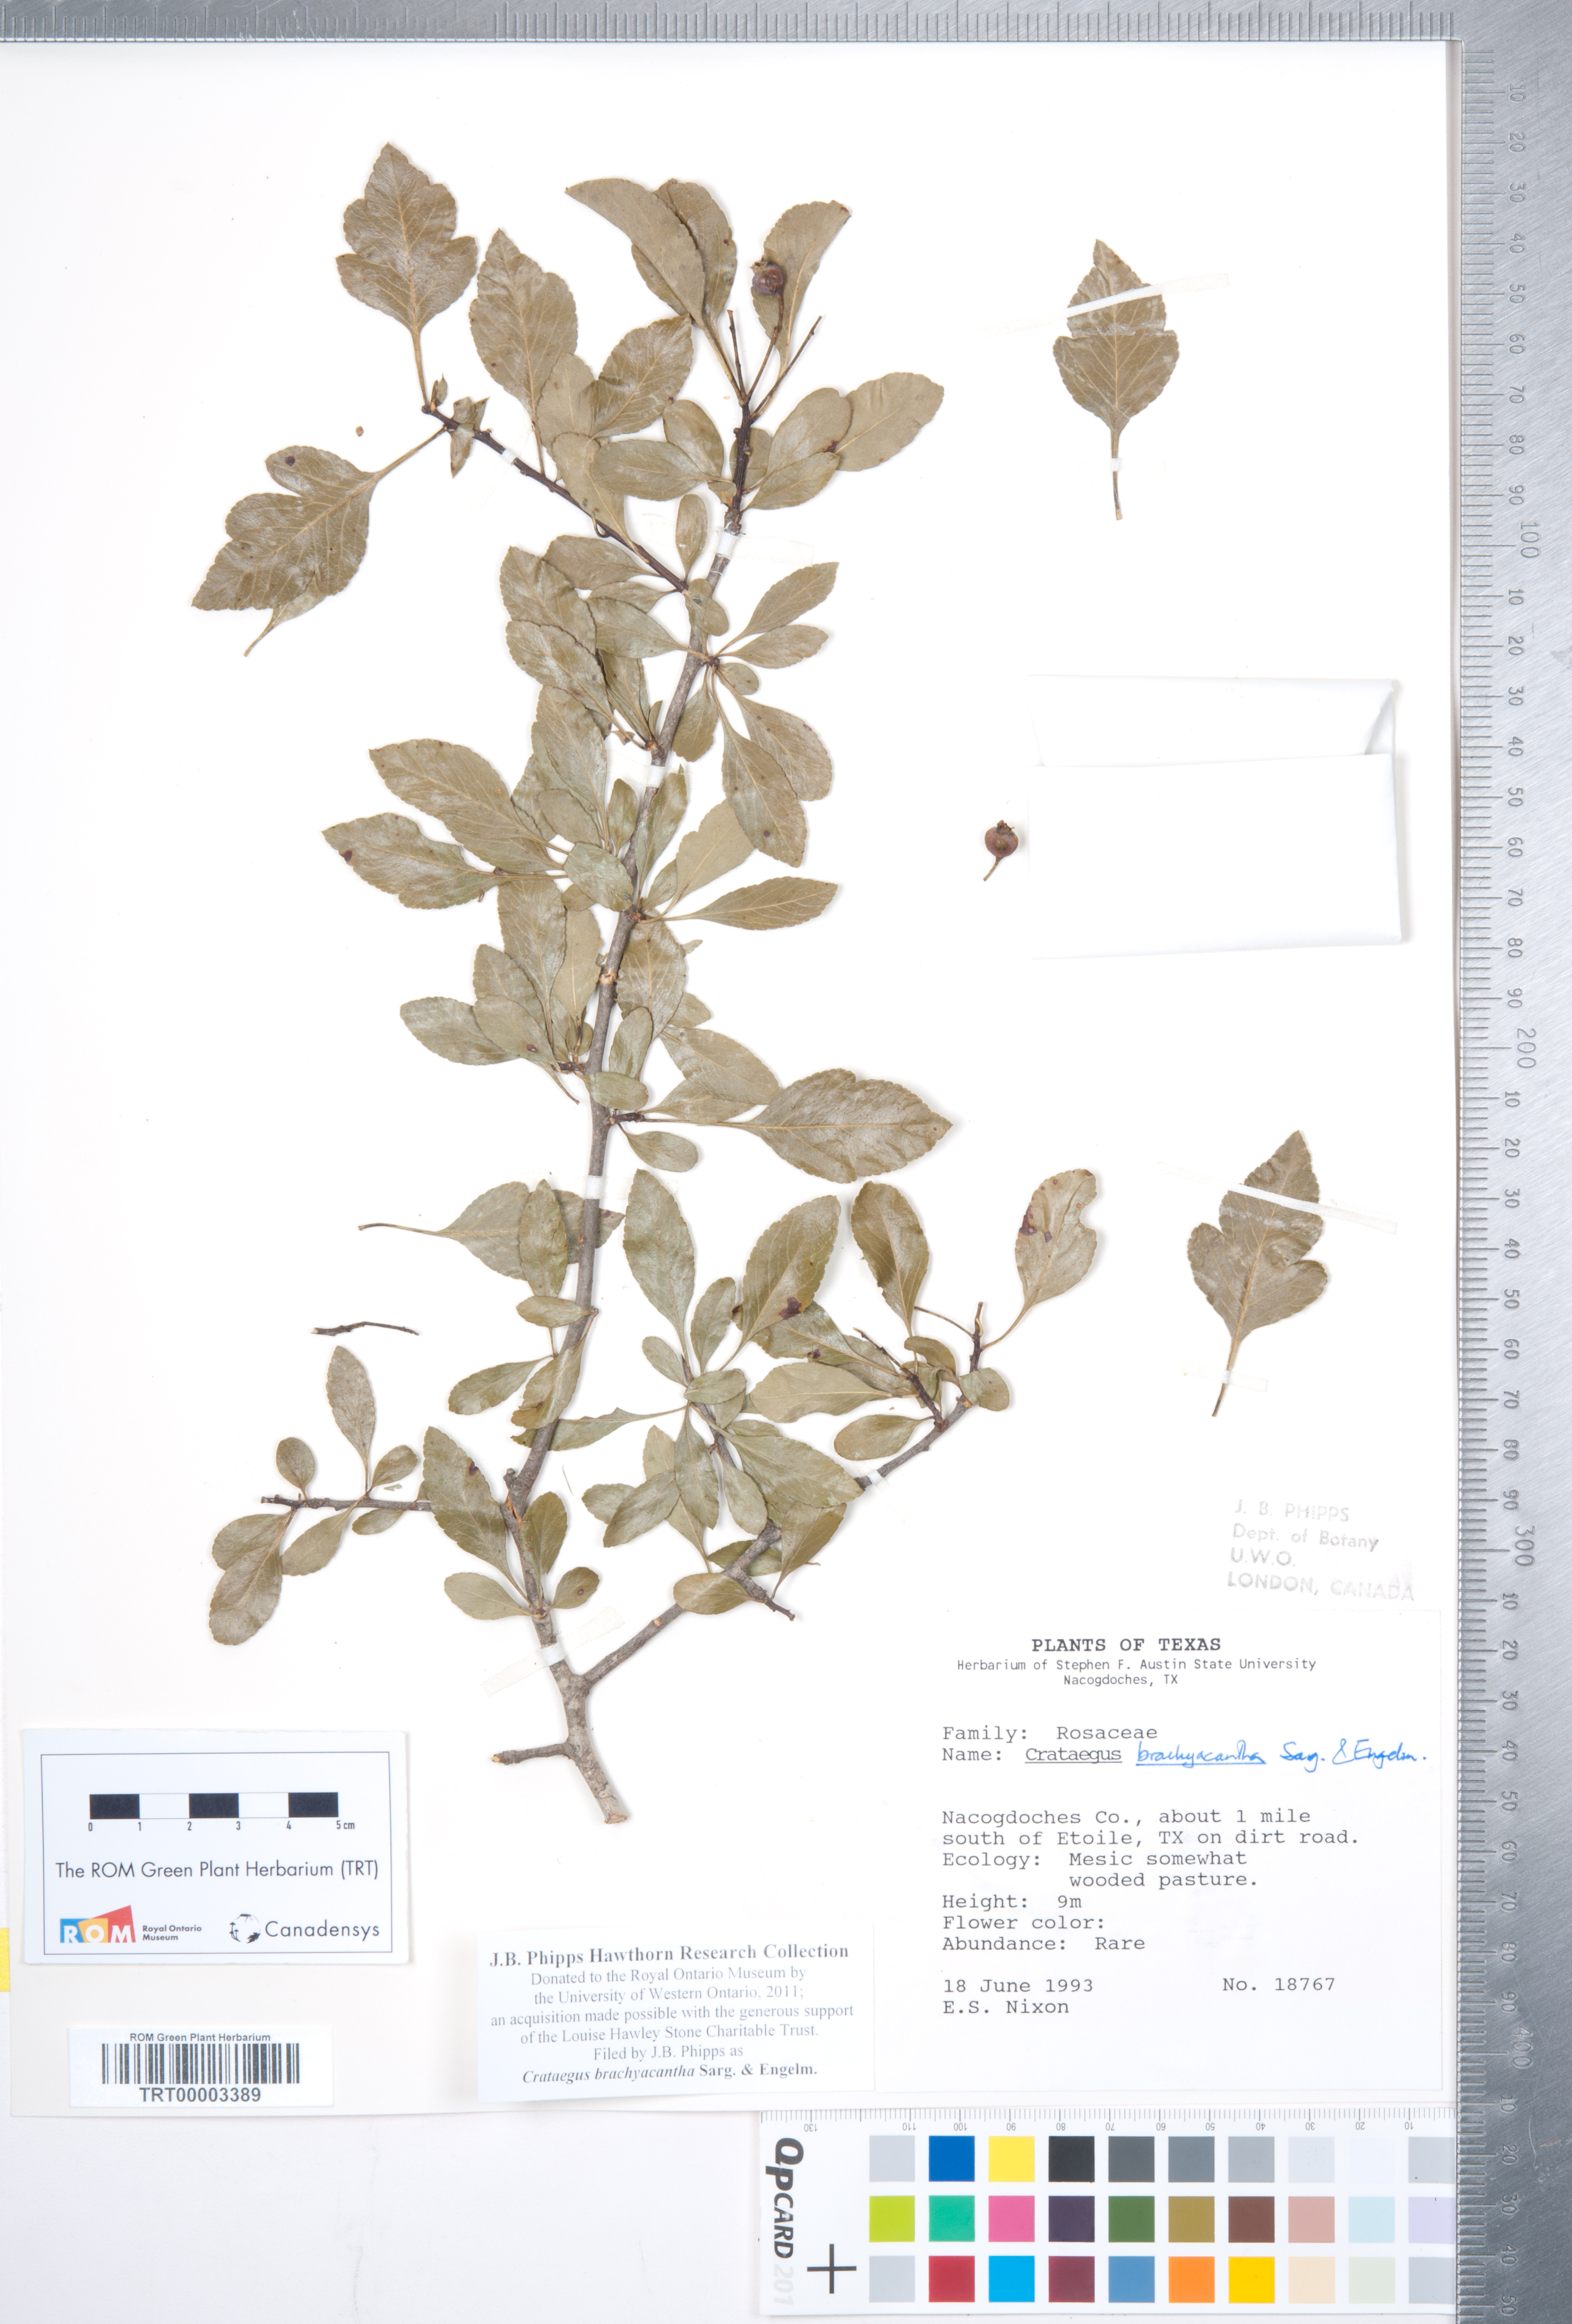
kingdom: Plantae
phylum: Tracheophyta
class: Magnoliopsida
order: Rosales
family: Rosaceae
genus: Crataegus
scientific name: Crataegus brachyacantha
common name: Blueberry-hawthorn
